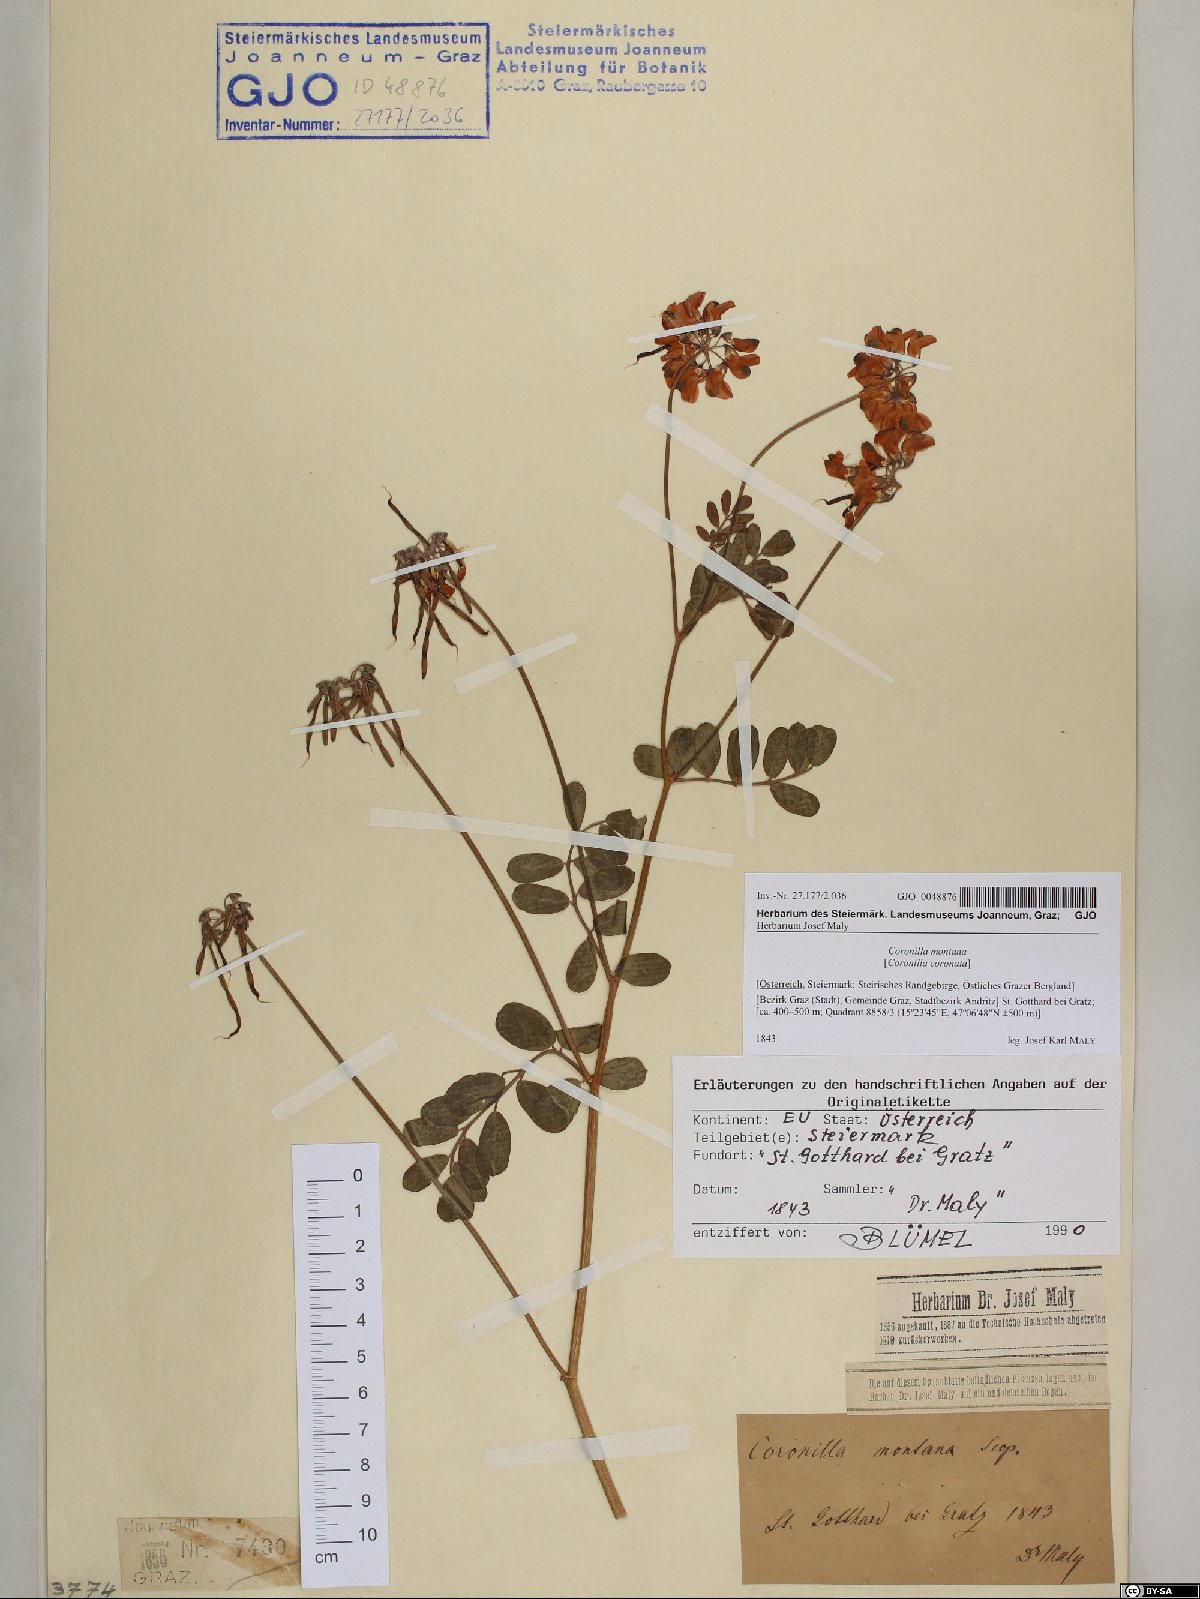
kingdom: Plantae
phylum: Tracheophyta
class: Magnoliopsida
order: Fabales
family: Fabaceae
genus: Coronilla
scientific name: Coronilla coronata
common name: Scorpion-vetch
